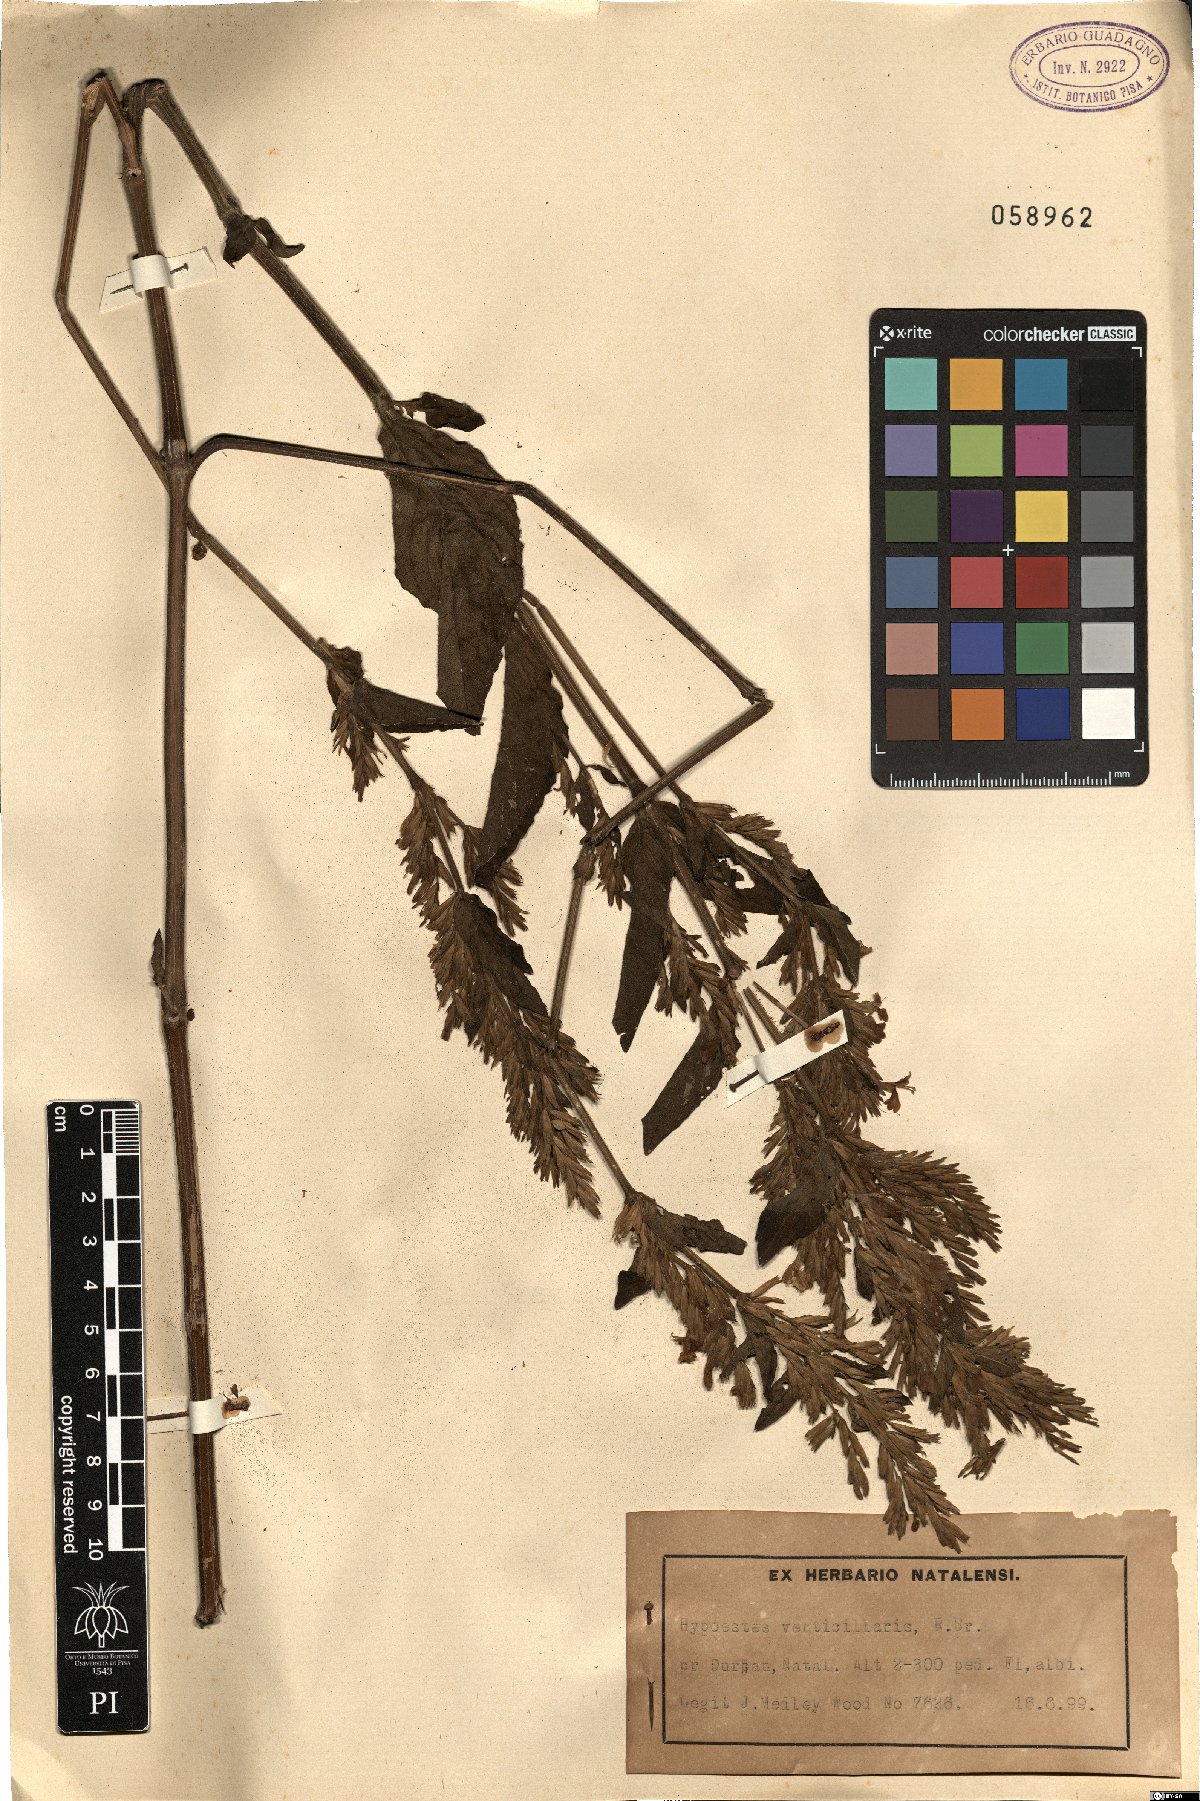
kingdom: Plantae
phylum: Tracheophyta
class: Magnoliopsida
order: Lamiales
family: Acanthaceae
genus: Hypoestes
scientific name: Hypoestes aristata
